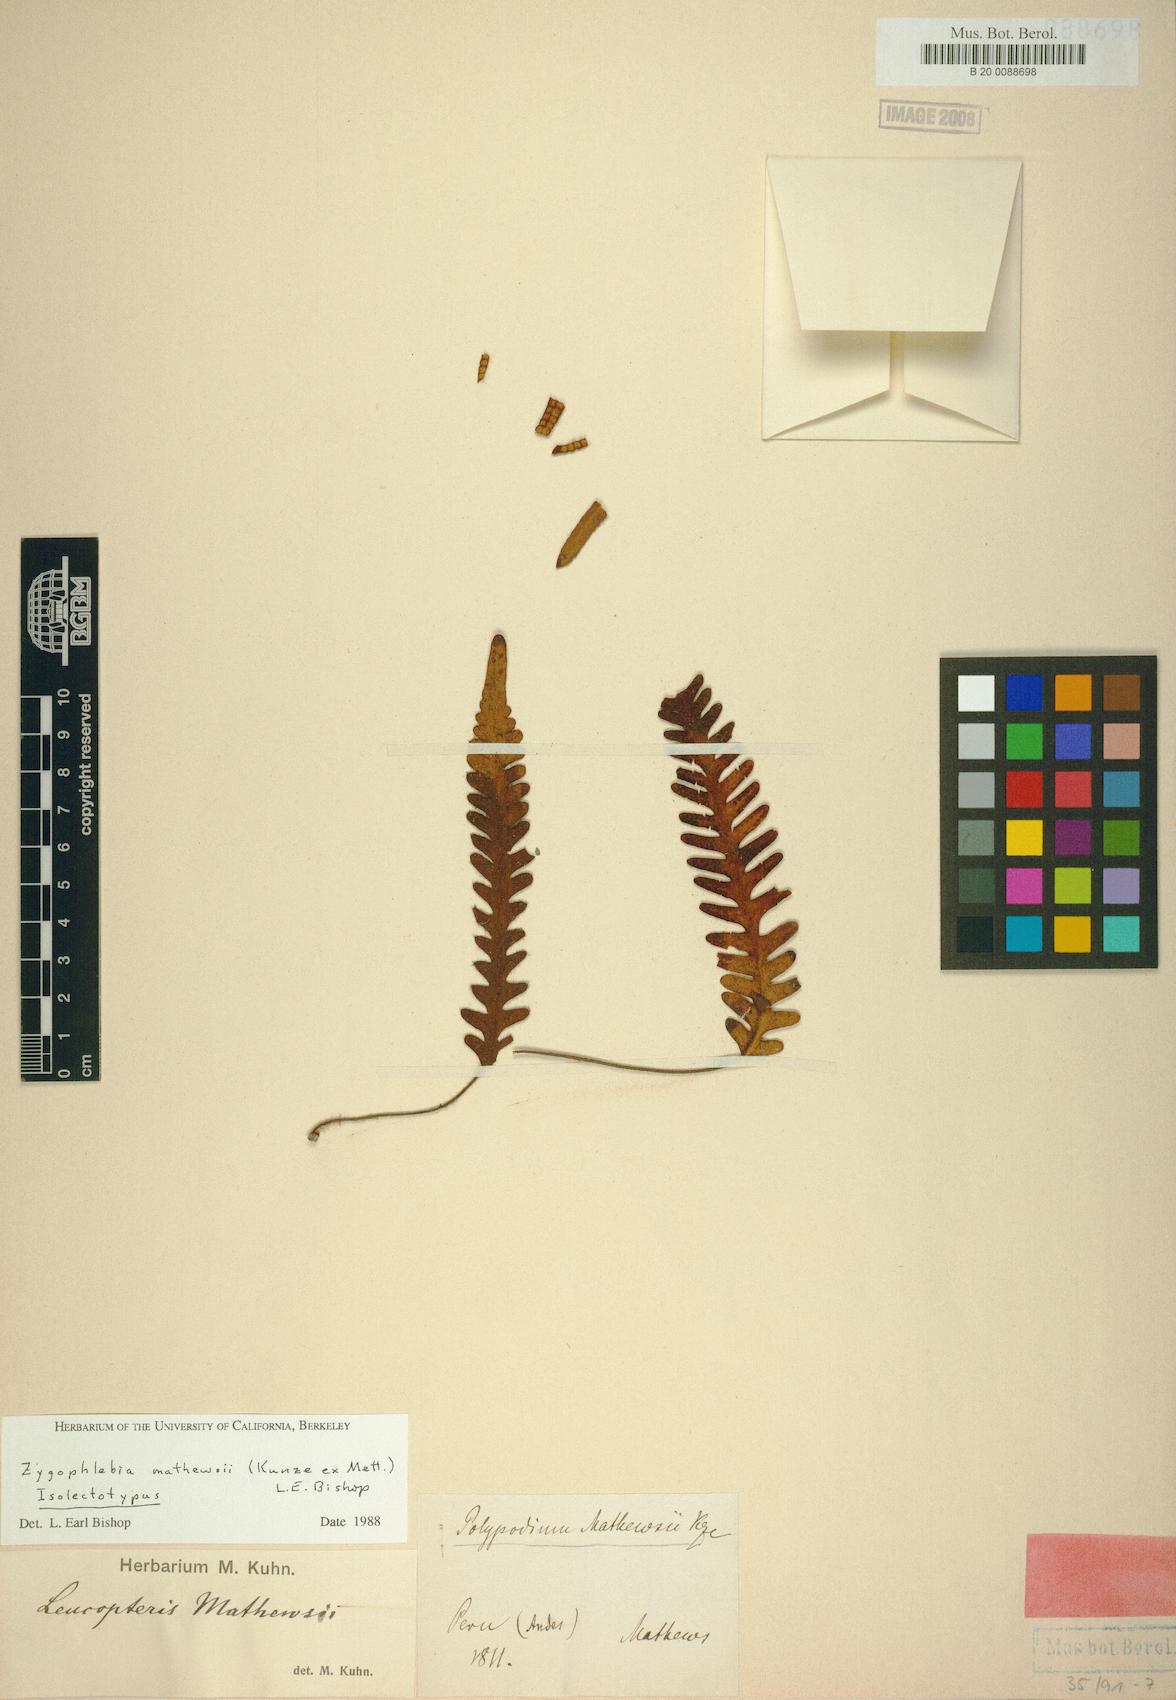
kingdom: Plantae
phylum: Tracheophyta
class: Polypodiopsida
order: Polypodiales
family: Polypodiaceae
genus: Enterosora
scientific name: Enterosora mathewsii
